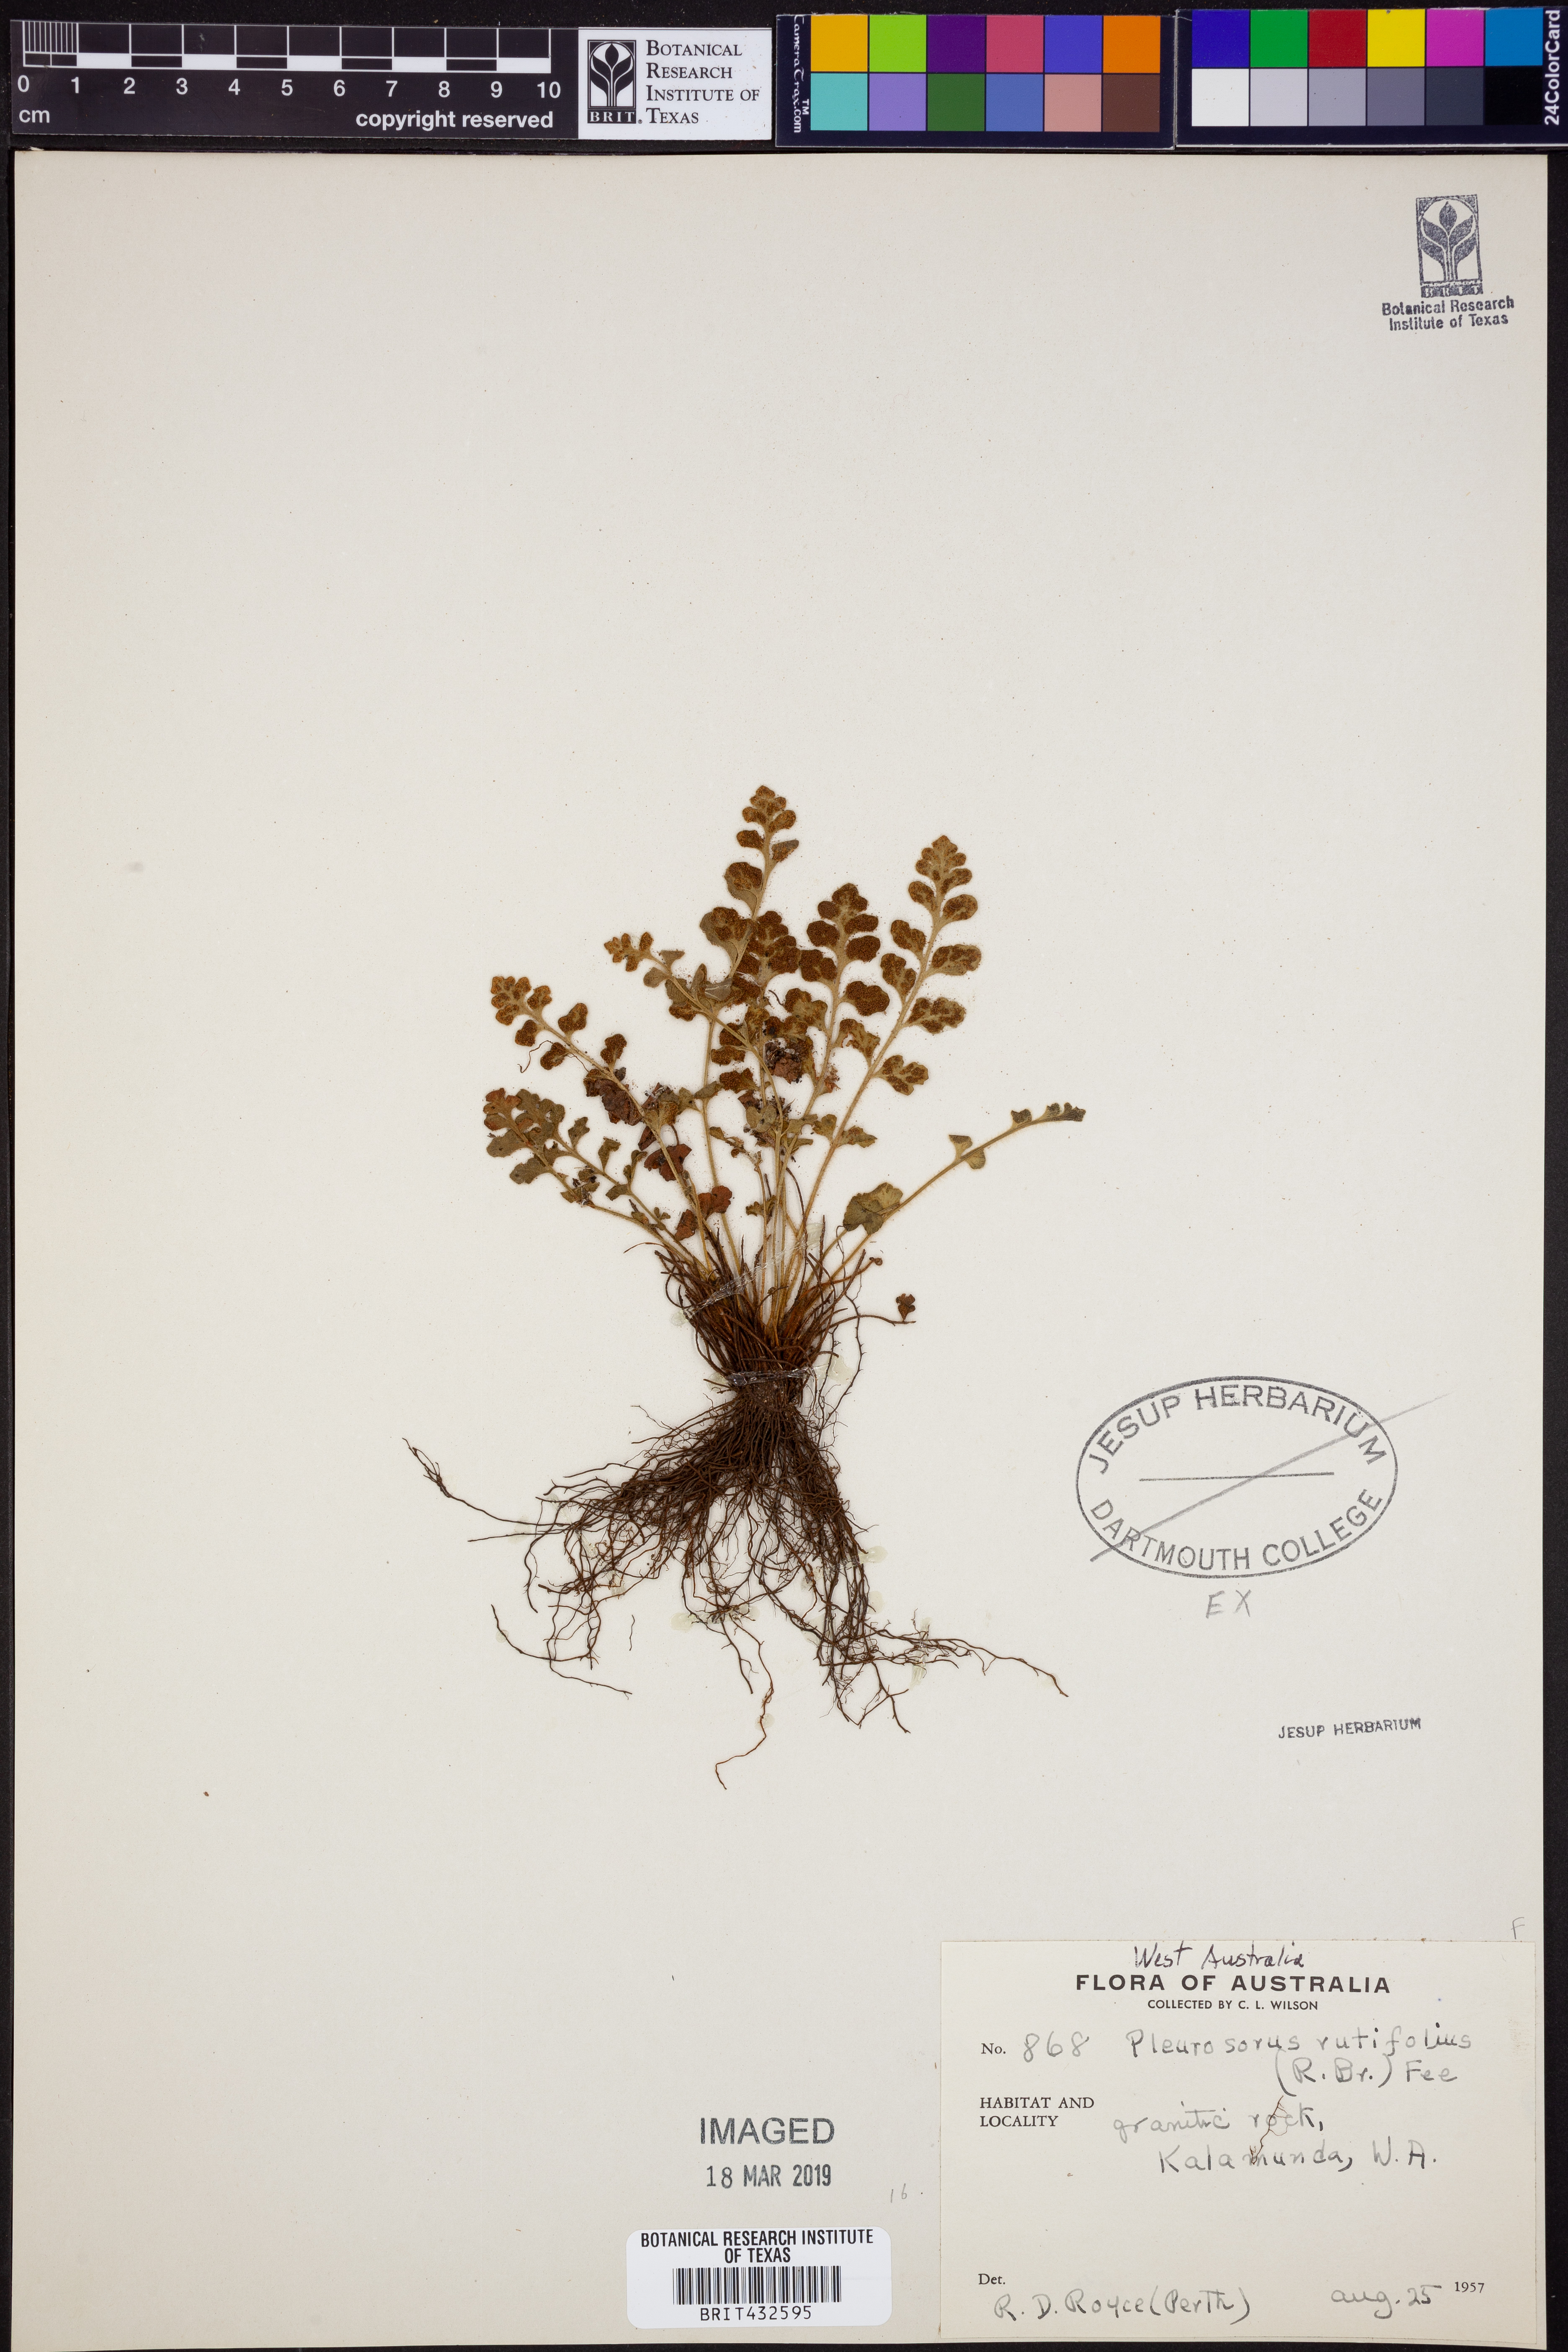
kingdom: Plantae
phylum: Tracheophyta
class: Polypodiopsida
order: Polypodiales
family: Aspleniaceae
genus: Asplenium
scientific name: Asplenium pleurosorum
